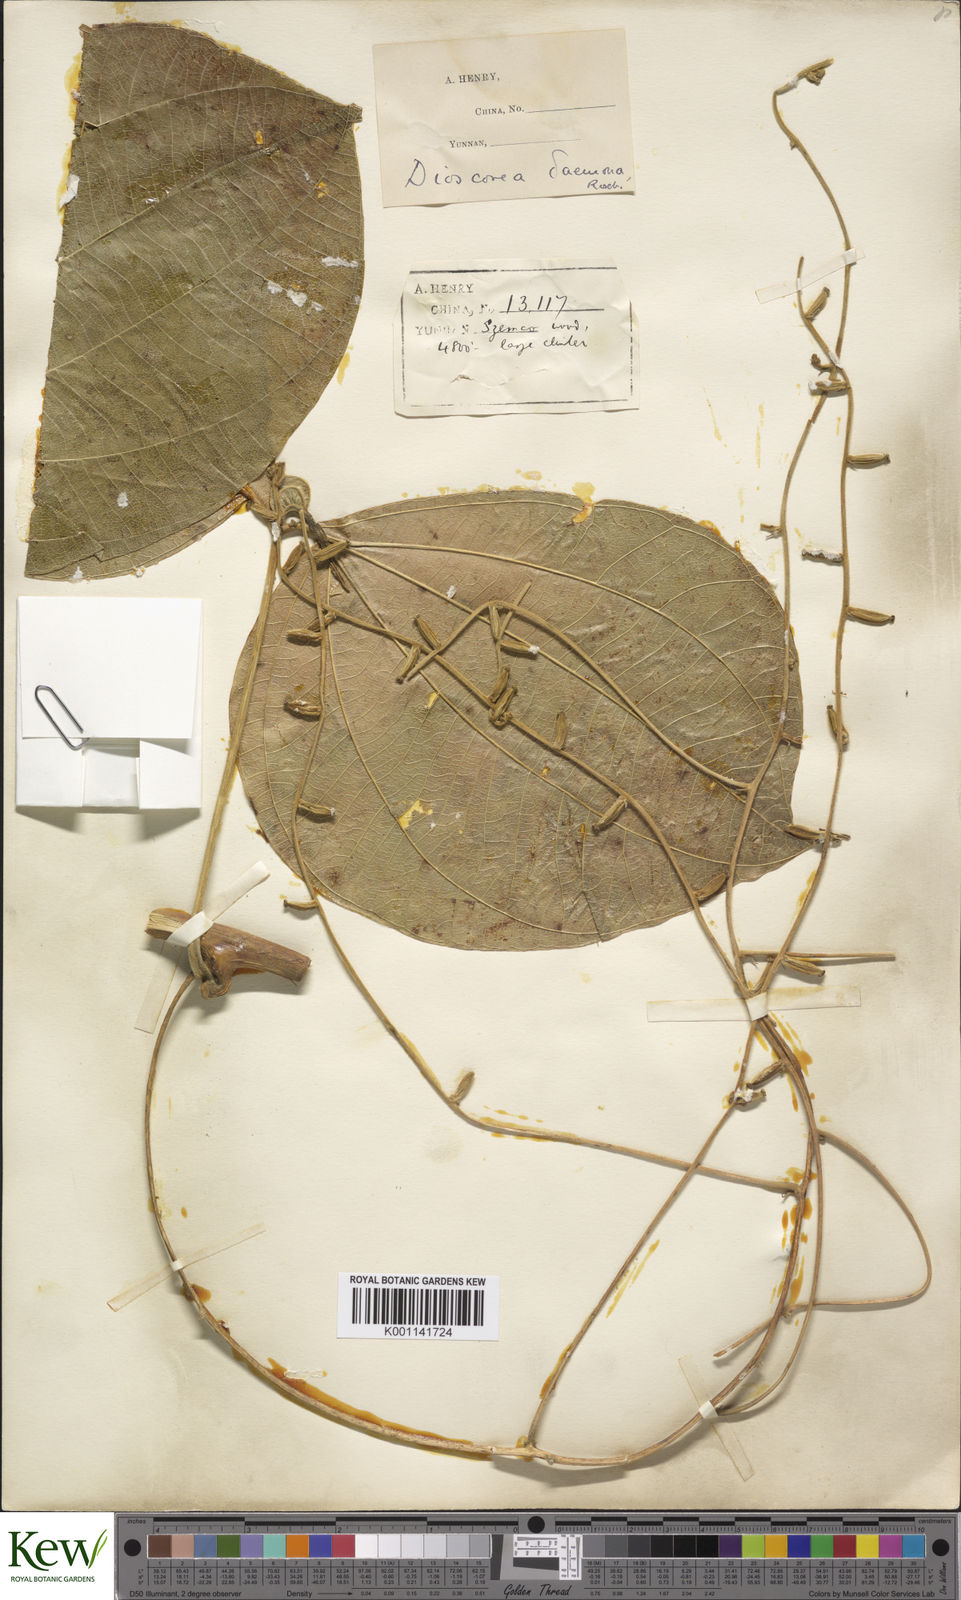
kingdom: Plantae
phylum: Tracheophyta
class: Liliopsida
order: Dioscoreales
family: Dioscoreaceae
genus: Dioscorea
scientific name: Dioscorea hispida
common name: Asiatic bitter yam
